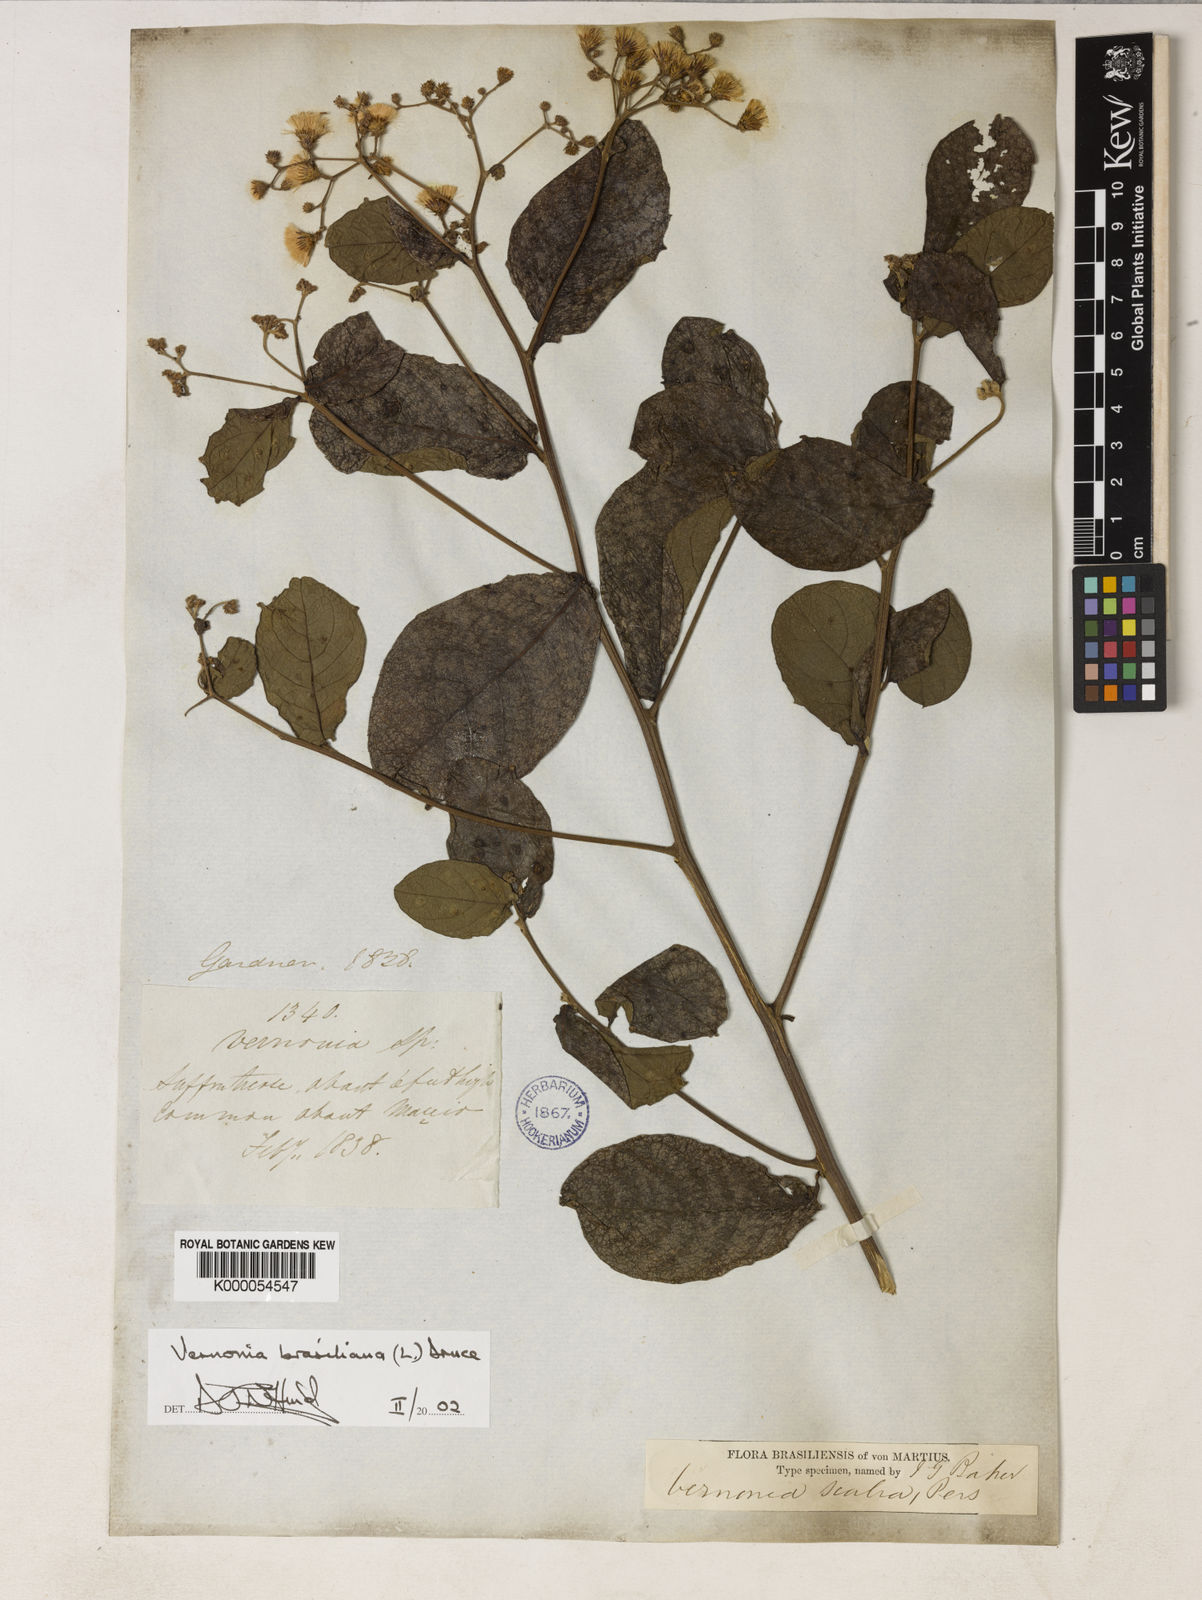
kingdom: Plantae
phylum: Tracheophyta
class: Magnoliopsida
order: Asterales
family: Asteraceae
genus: Vernonanthura
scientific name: Vernonanthura brasiliana
